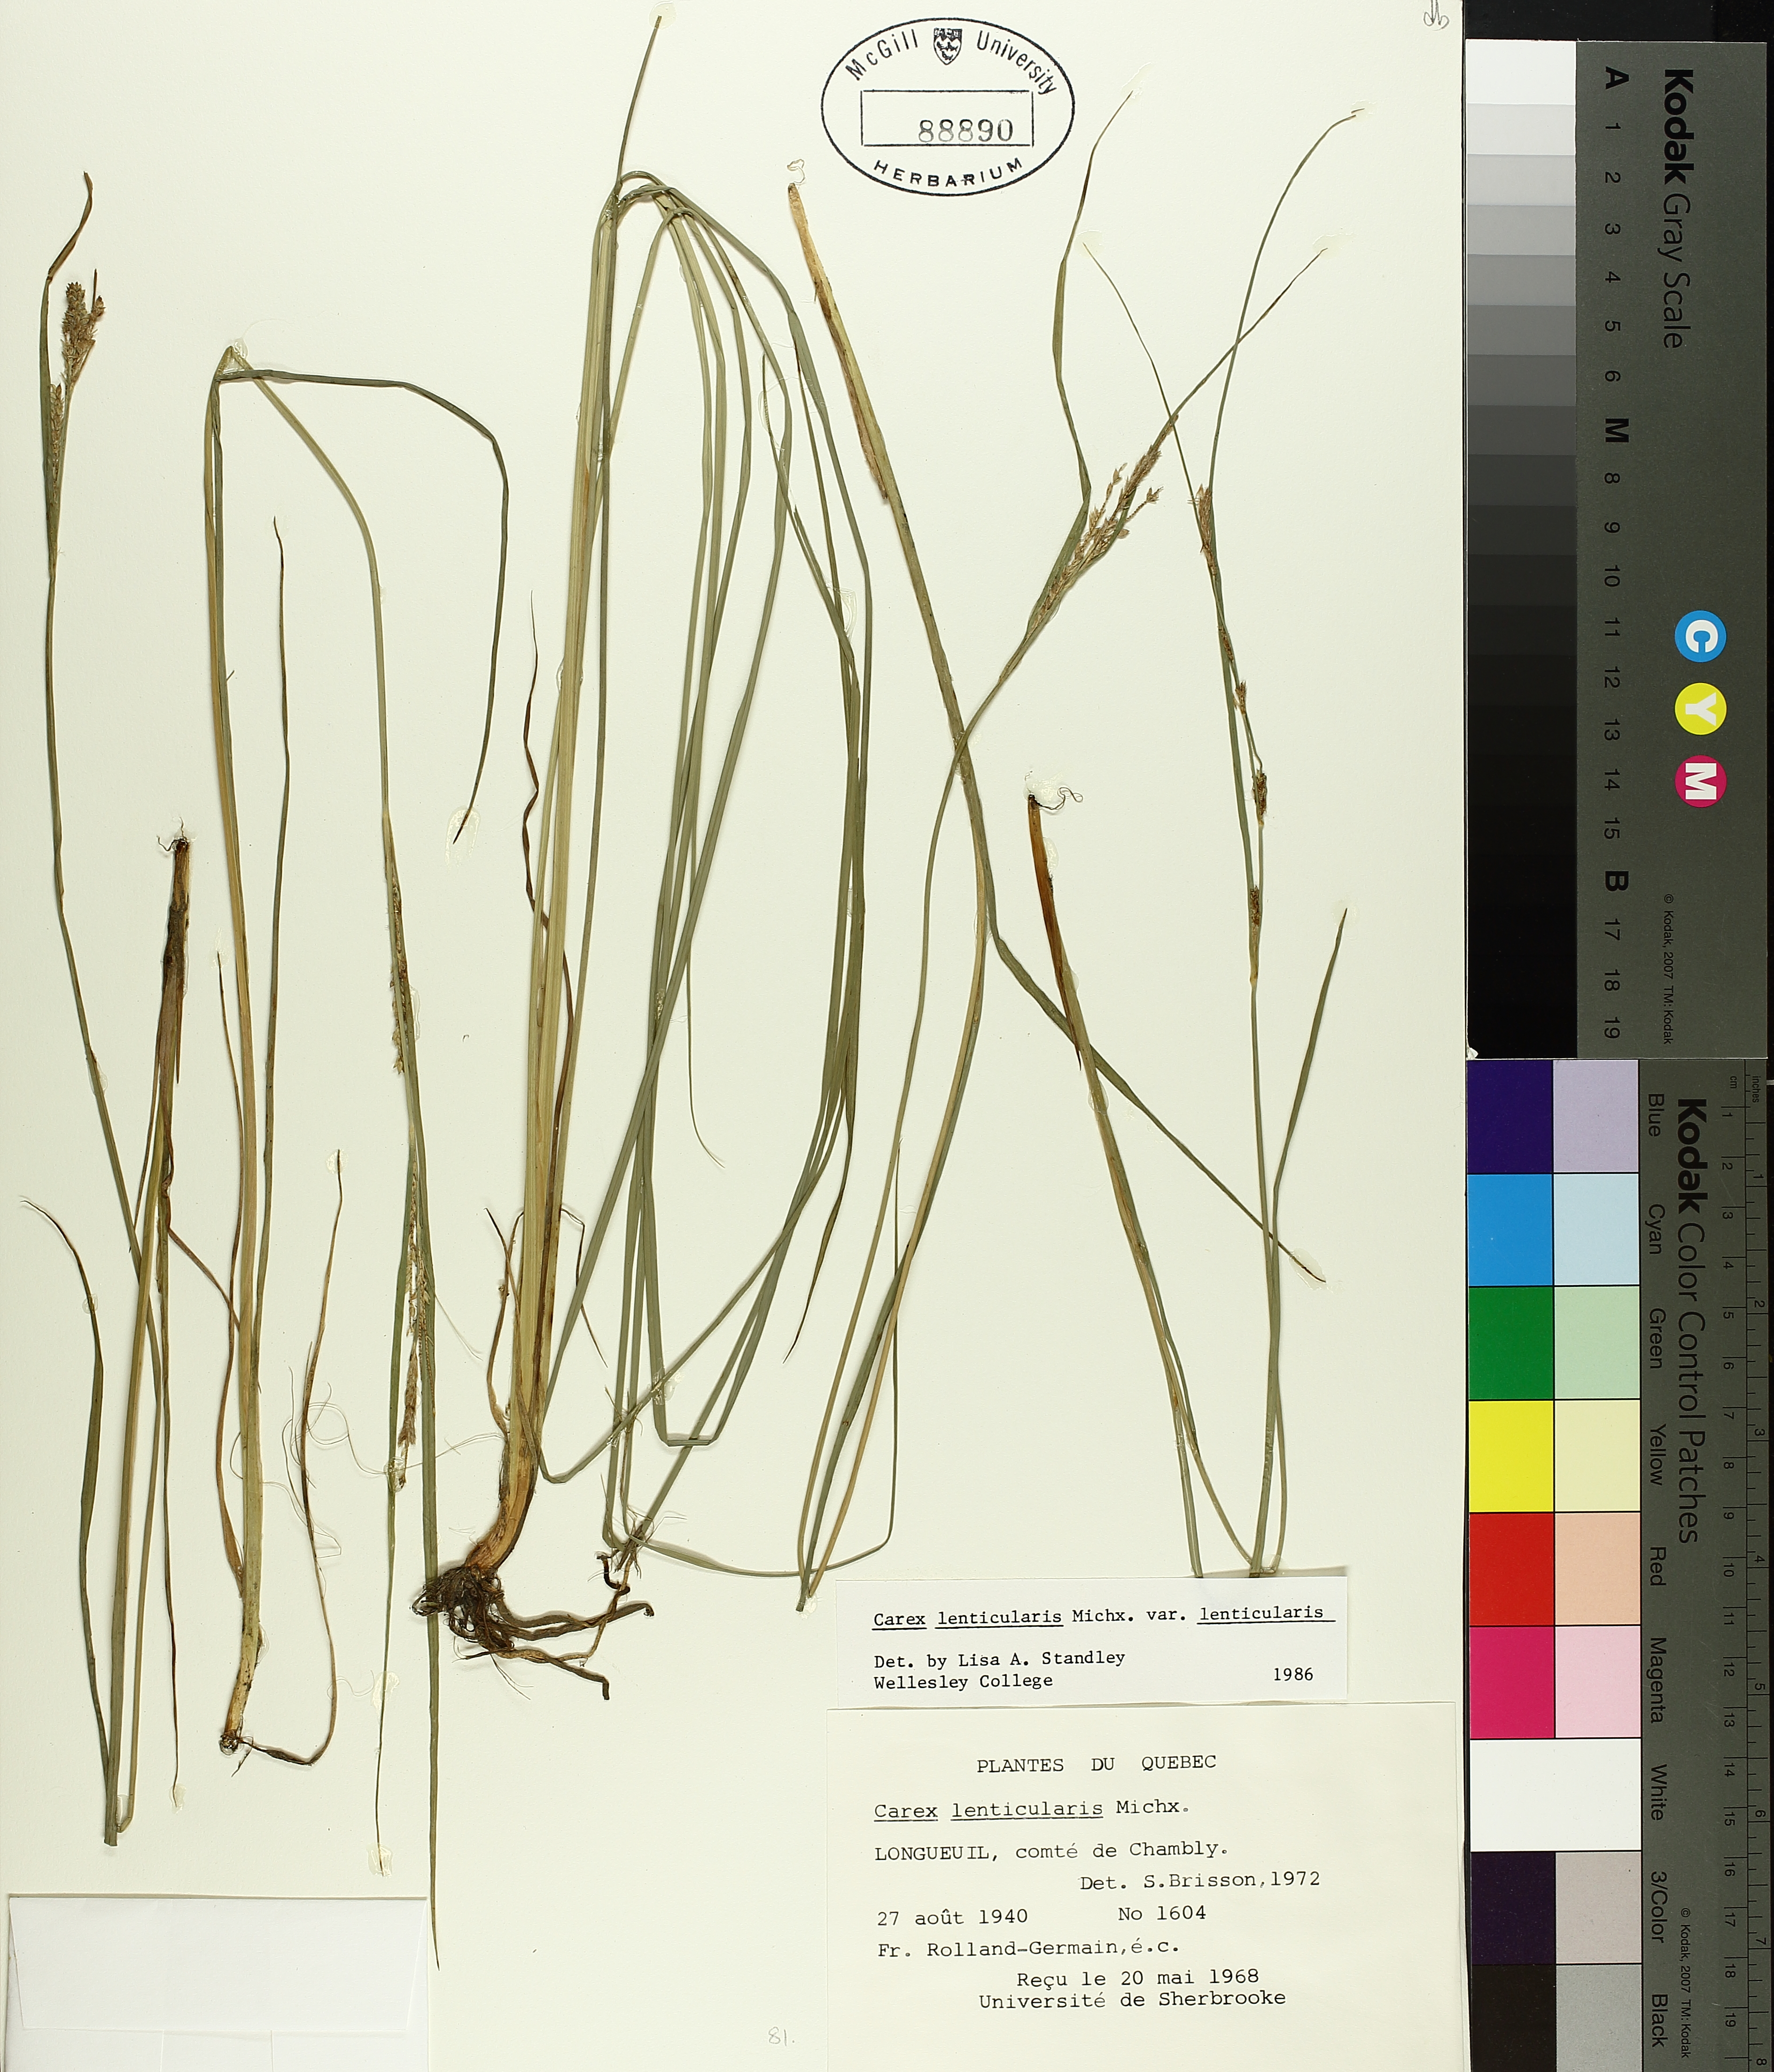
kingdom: Plantae
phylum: Tracheophyta
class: Liliopsida
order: Poales
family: Cyperaceae
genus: Carex
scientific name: Carex lenticularis
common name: Lakeshore sedge
